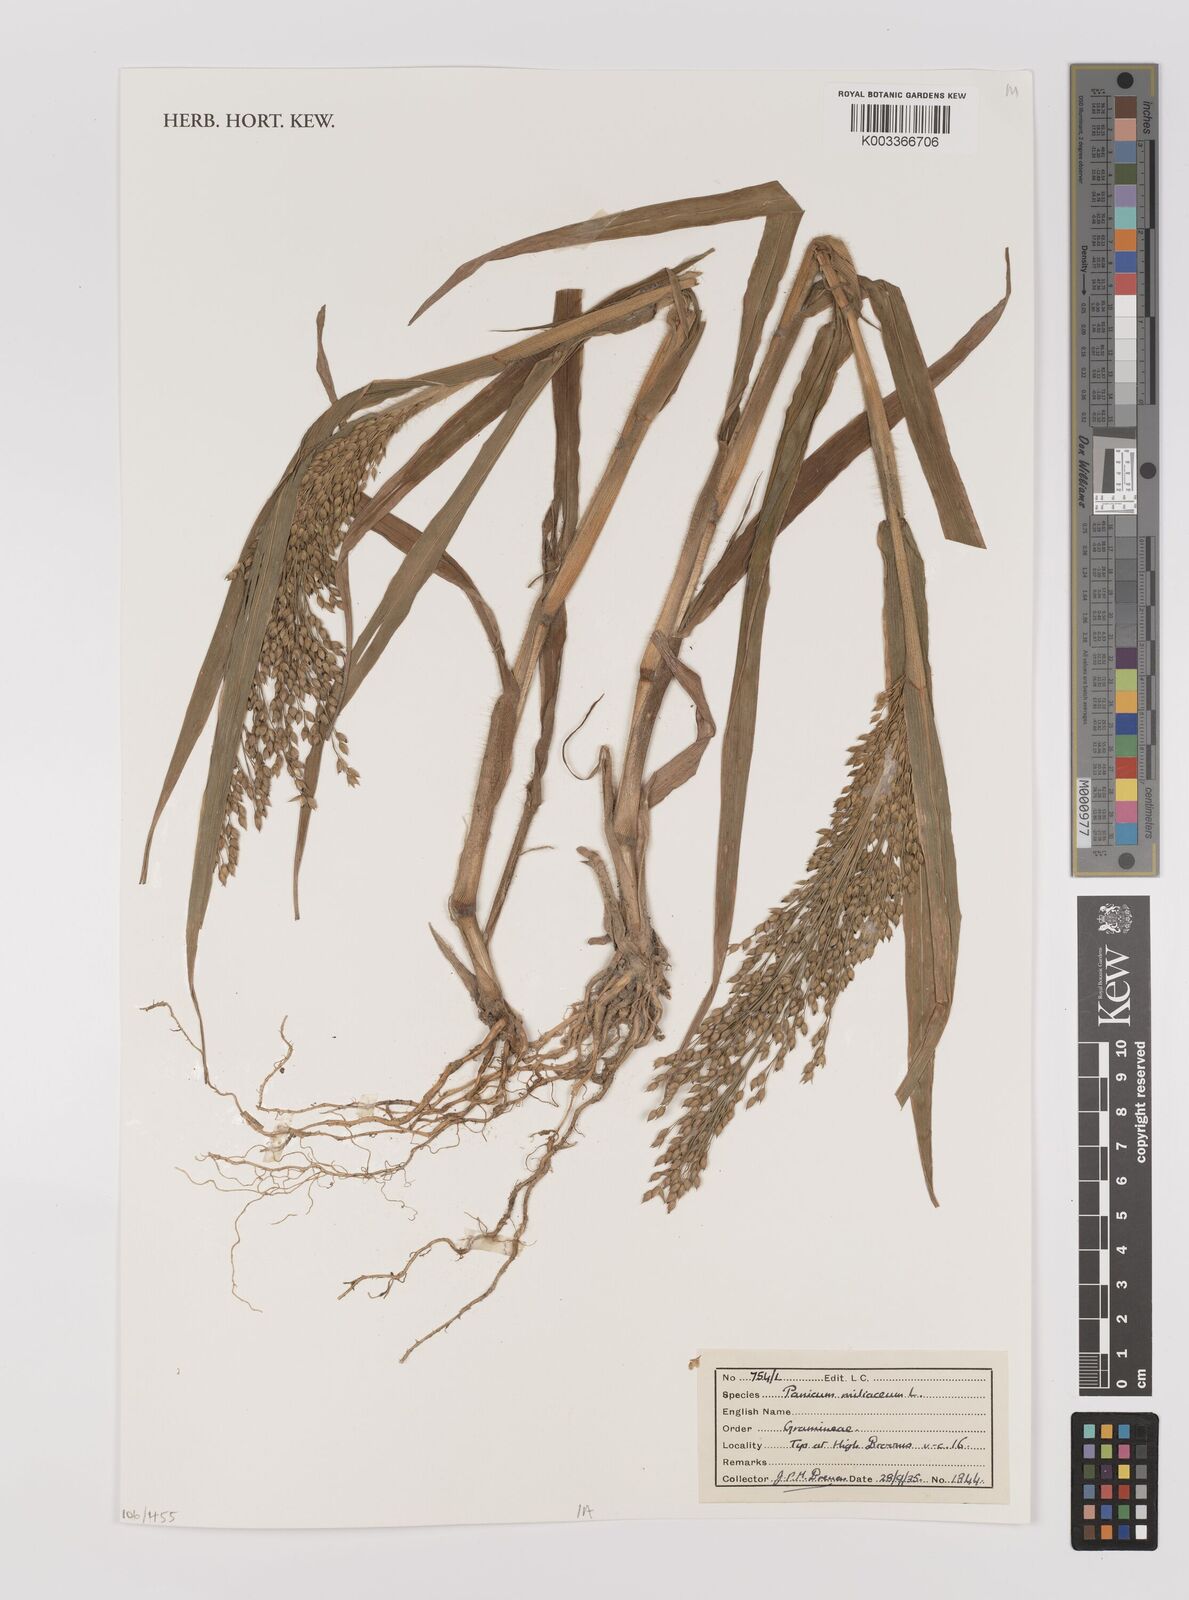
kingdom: Plantae
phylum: Tracheophyta
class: Liliopsida
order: Poales
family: Poaceae
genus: Panicum
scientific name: Panicum miliaceum
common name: Common millet
